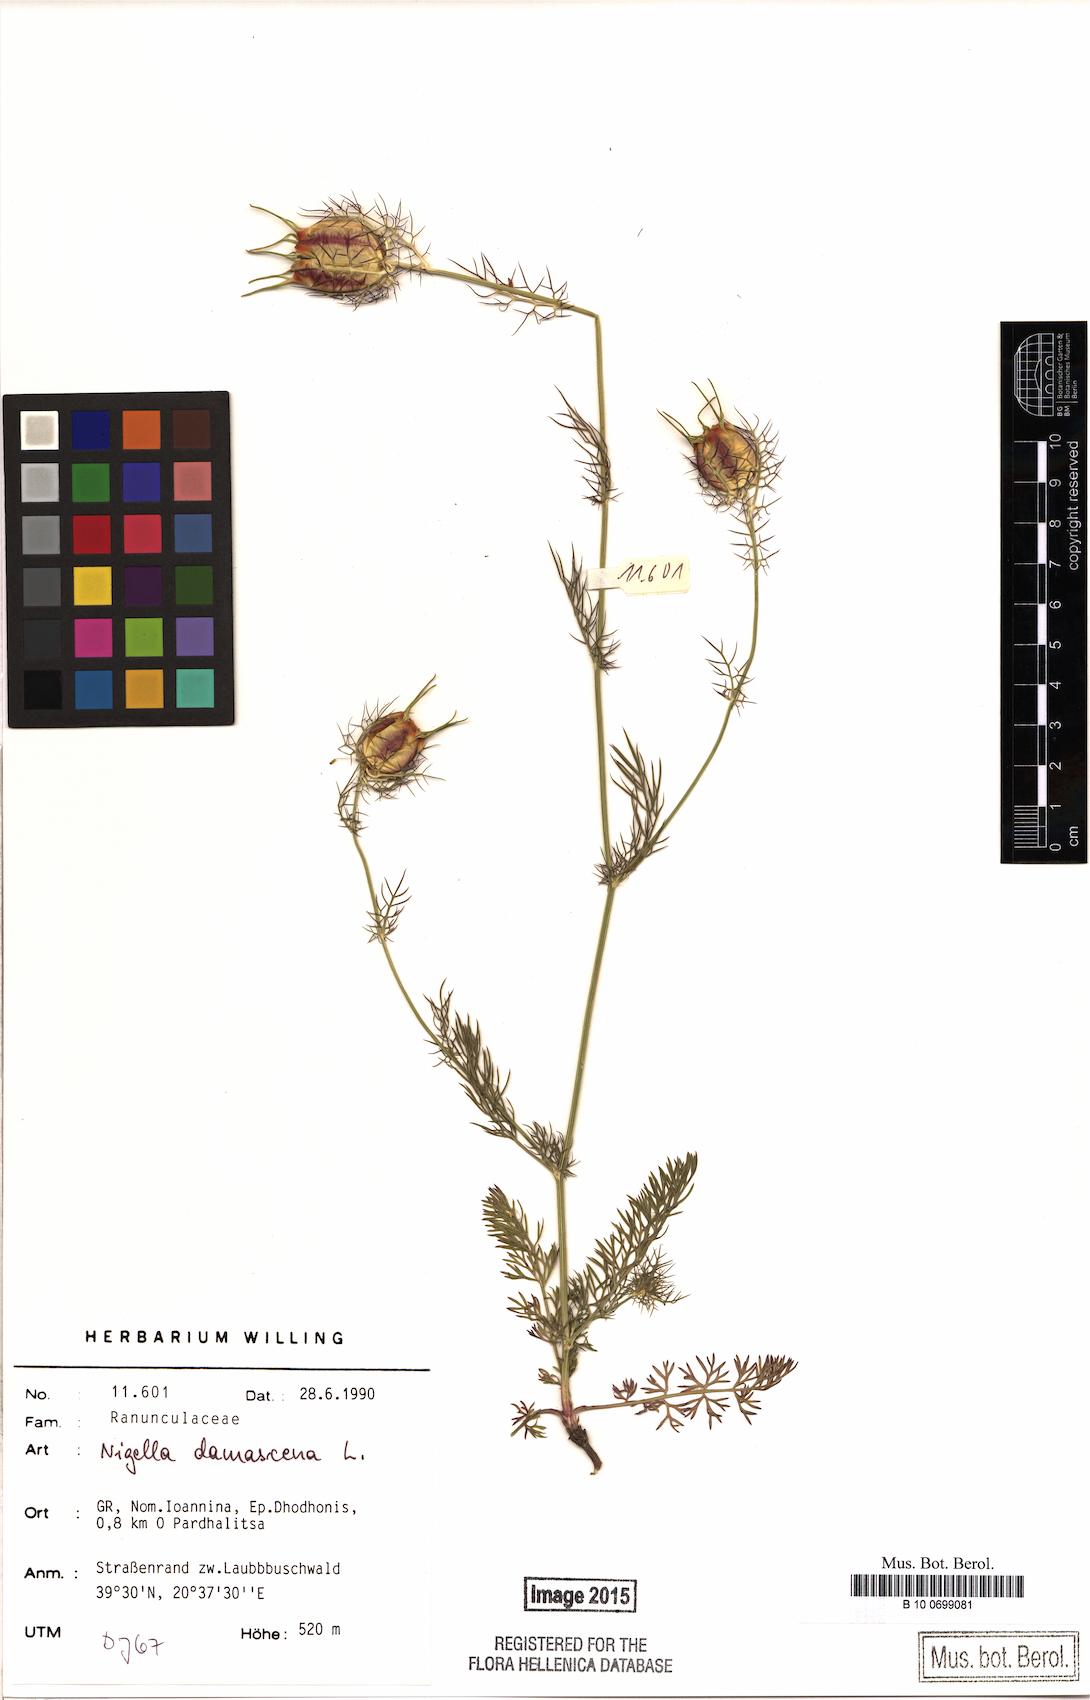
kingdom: Plantae
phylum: Tracheophyta
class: Magnoliopsida
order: Ranunculales
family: Ranunculaceae
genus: Nigella
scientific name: Nigella damascena
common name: Love-in-a-mist
